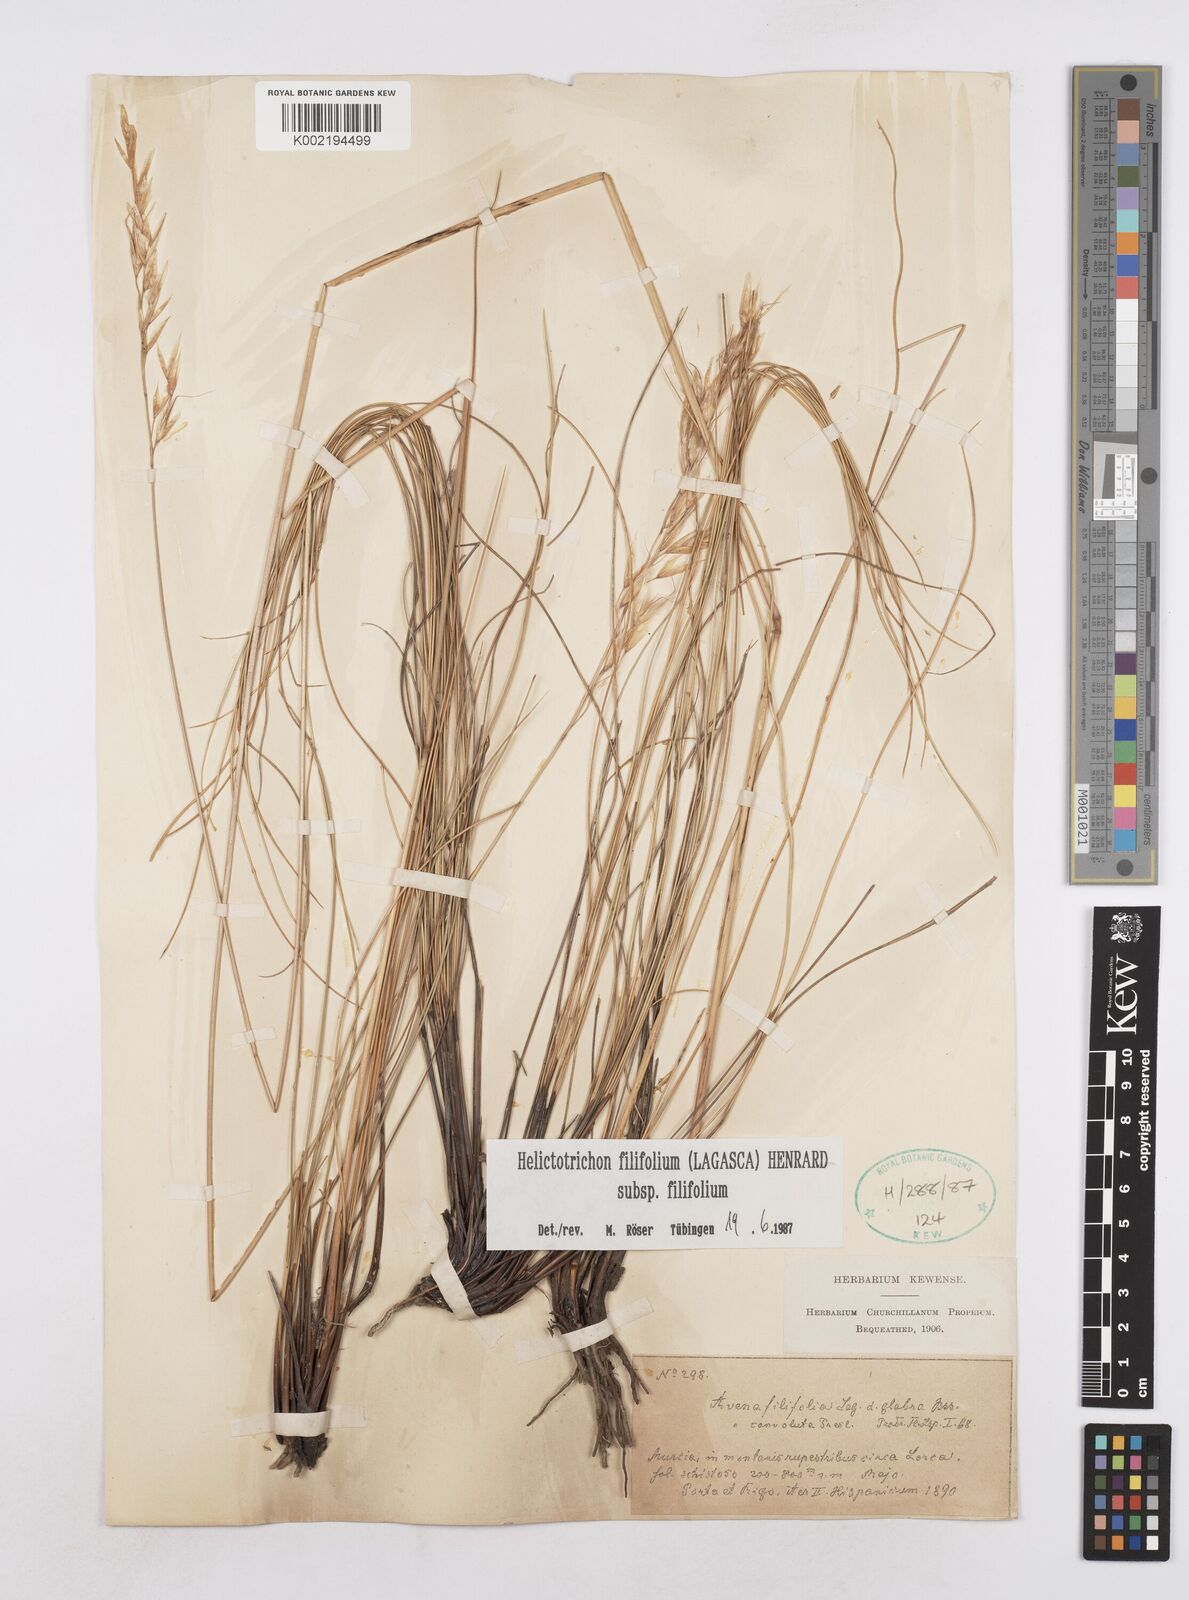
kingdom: Plantae
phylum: Tracheophyta
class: Liliopsida
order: Poales
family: Poaceae
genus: Helictotrichon
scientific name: Helictotrichon filifolium
